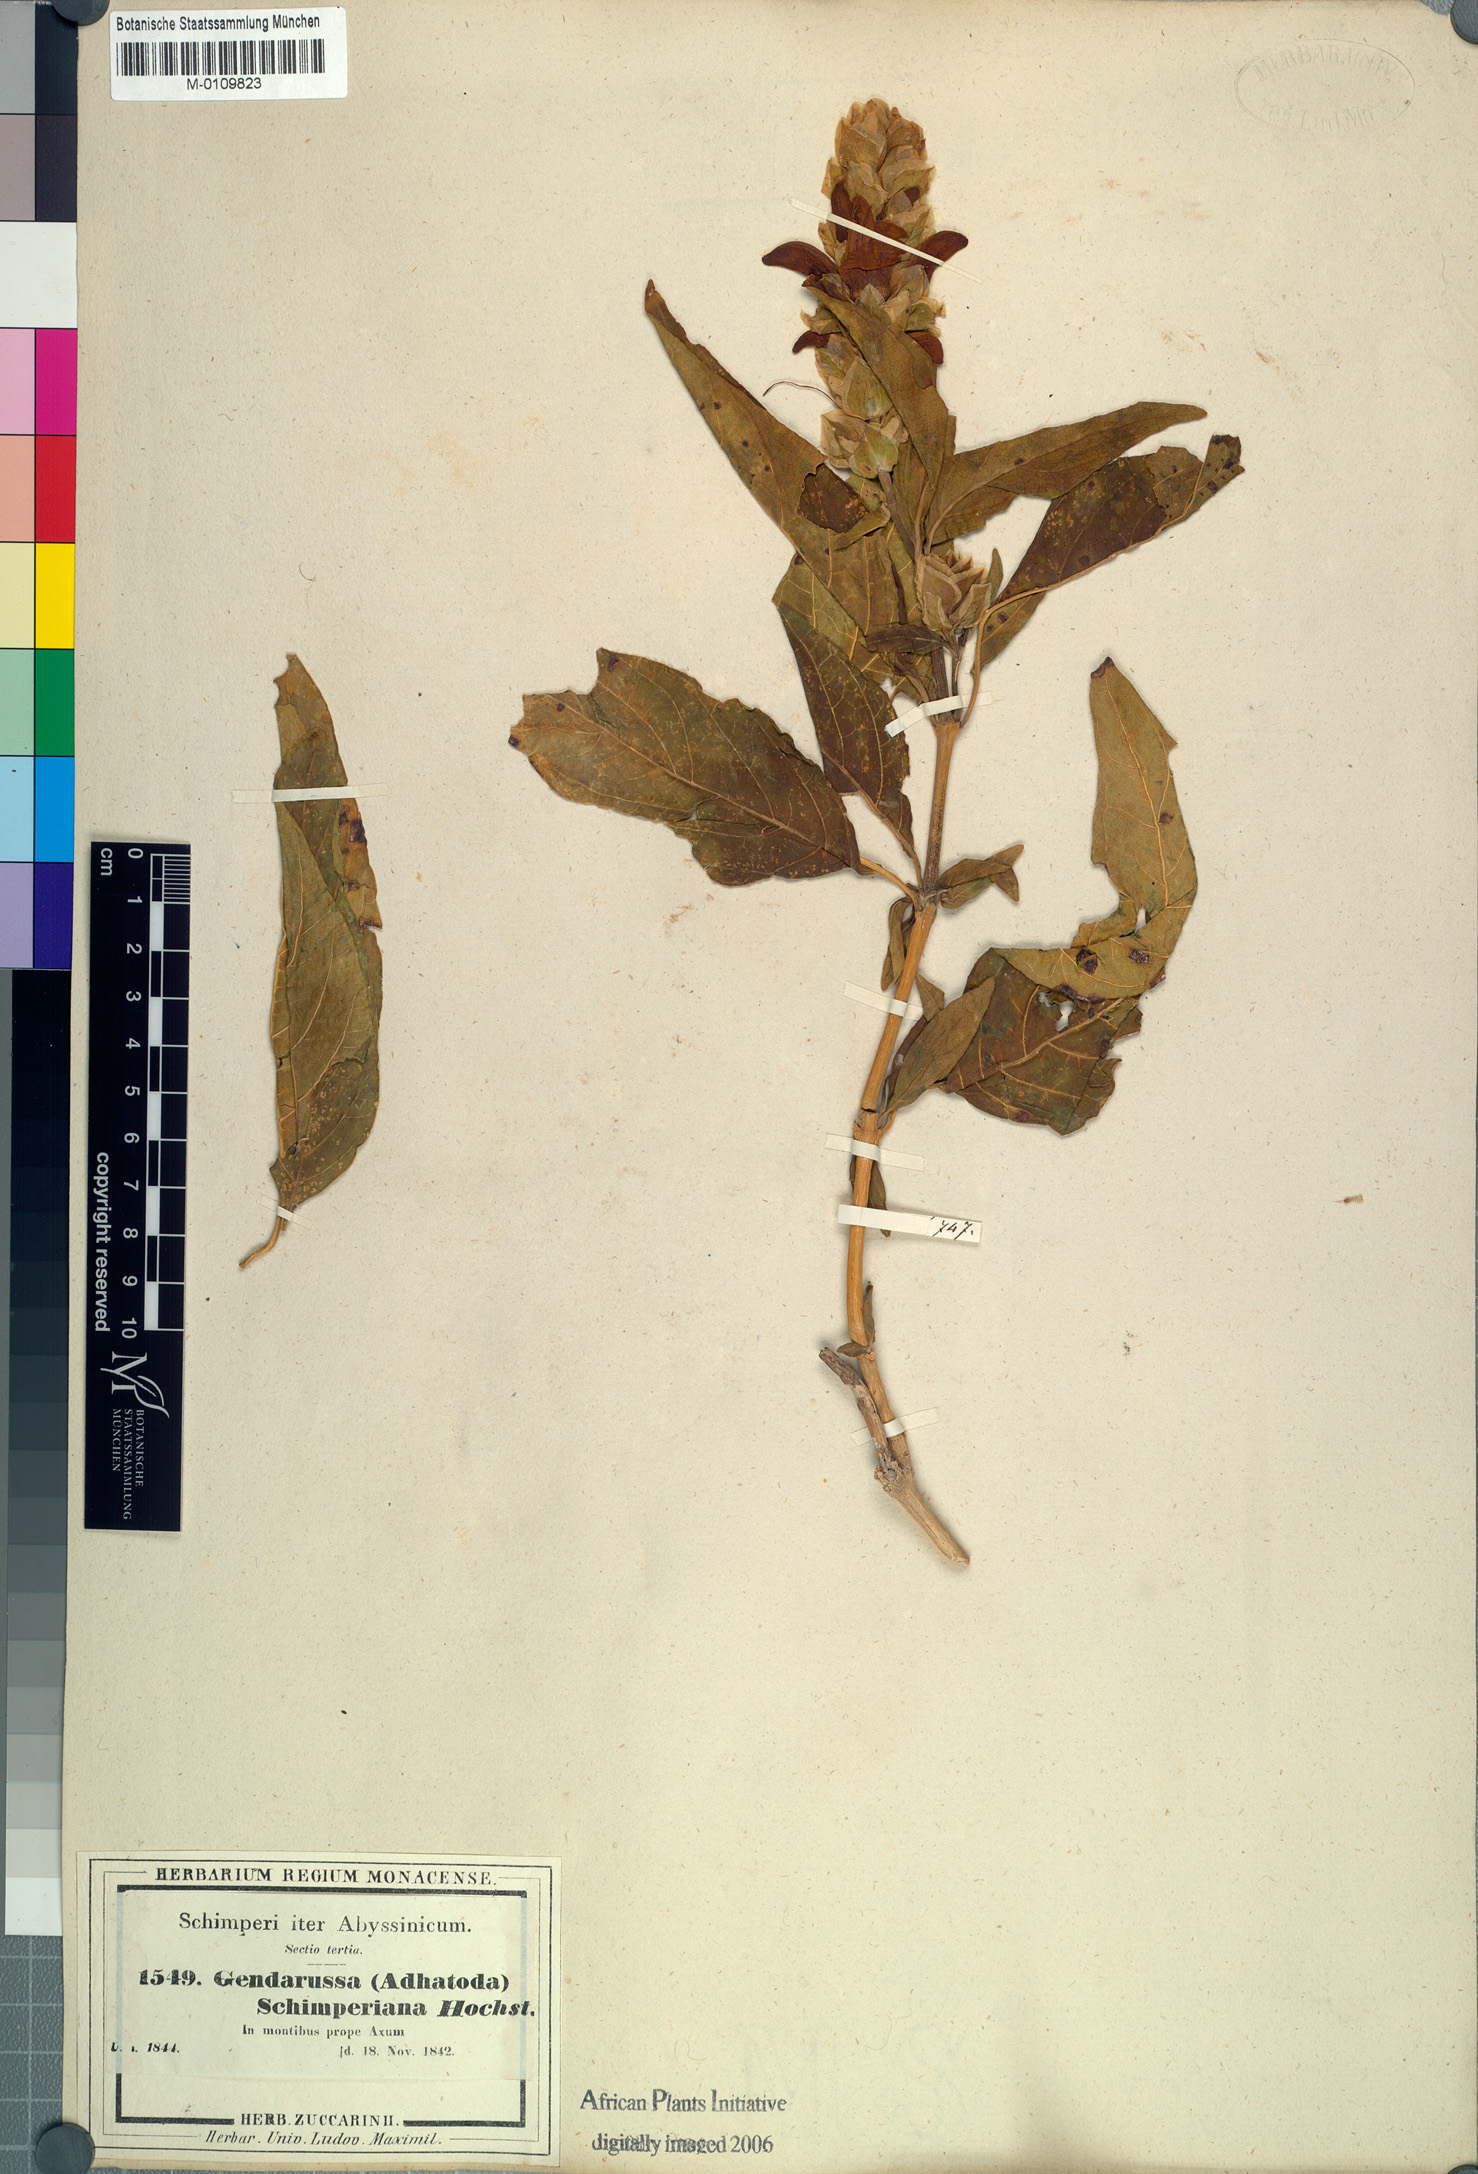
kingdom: Plantae
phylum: Tracheophyta
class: Magnoliopsida
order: Lamiales
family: Acanthaceae
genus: Justicia
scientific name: Justicia schimperiana
